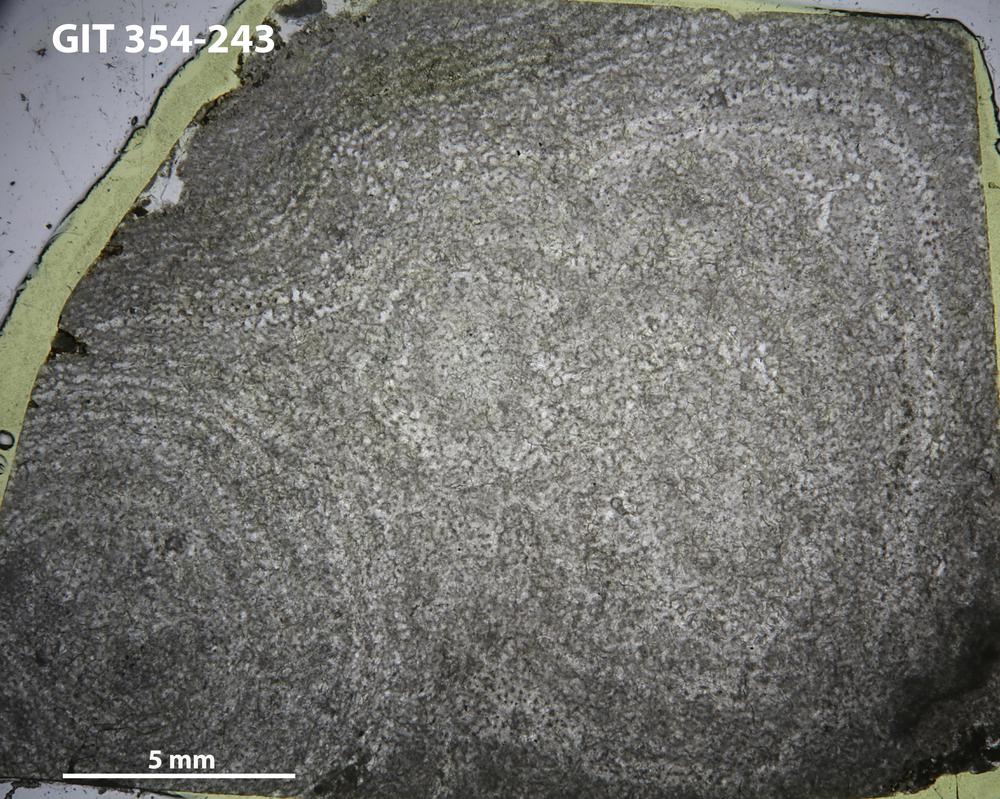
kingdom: Animalia
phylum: Porifera
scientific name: Porifera
